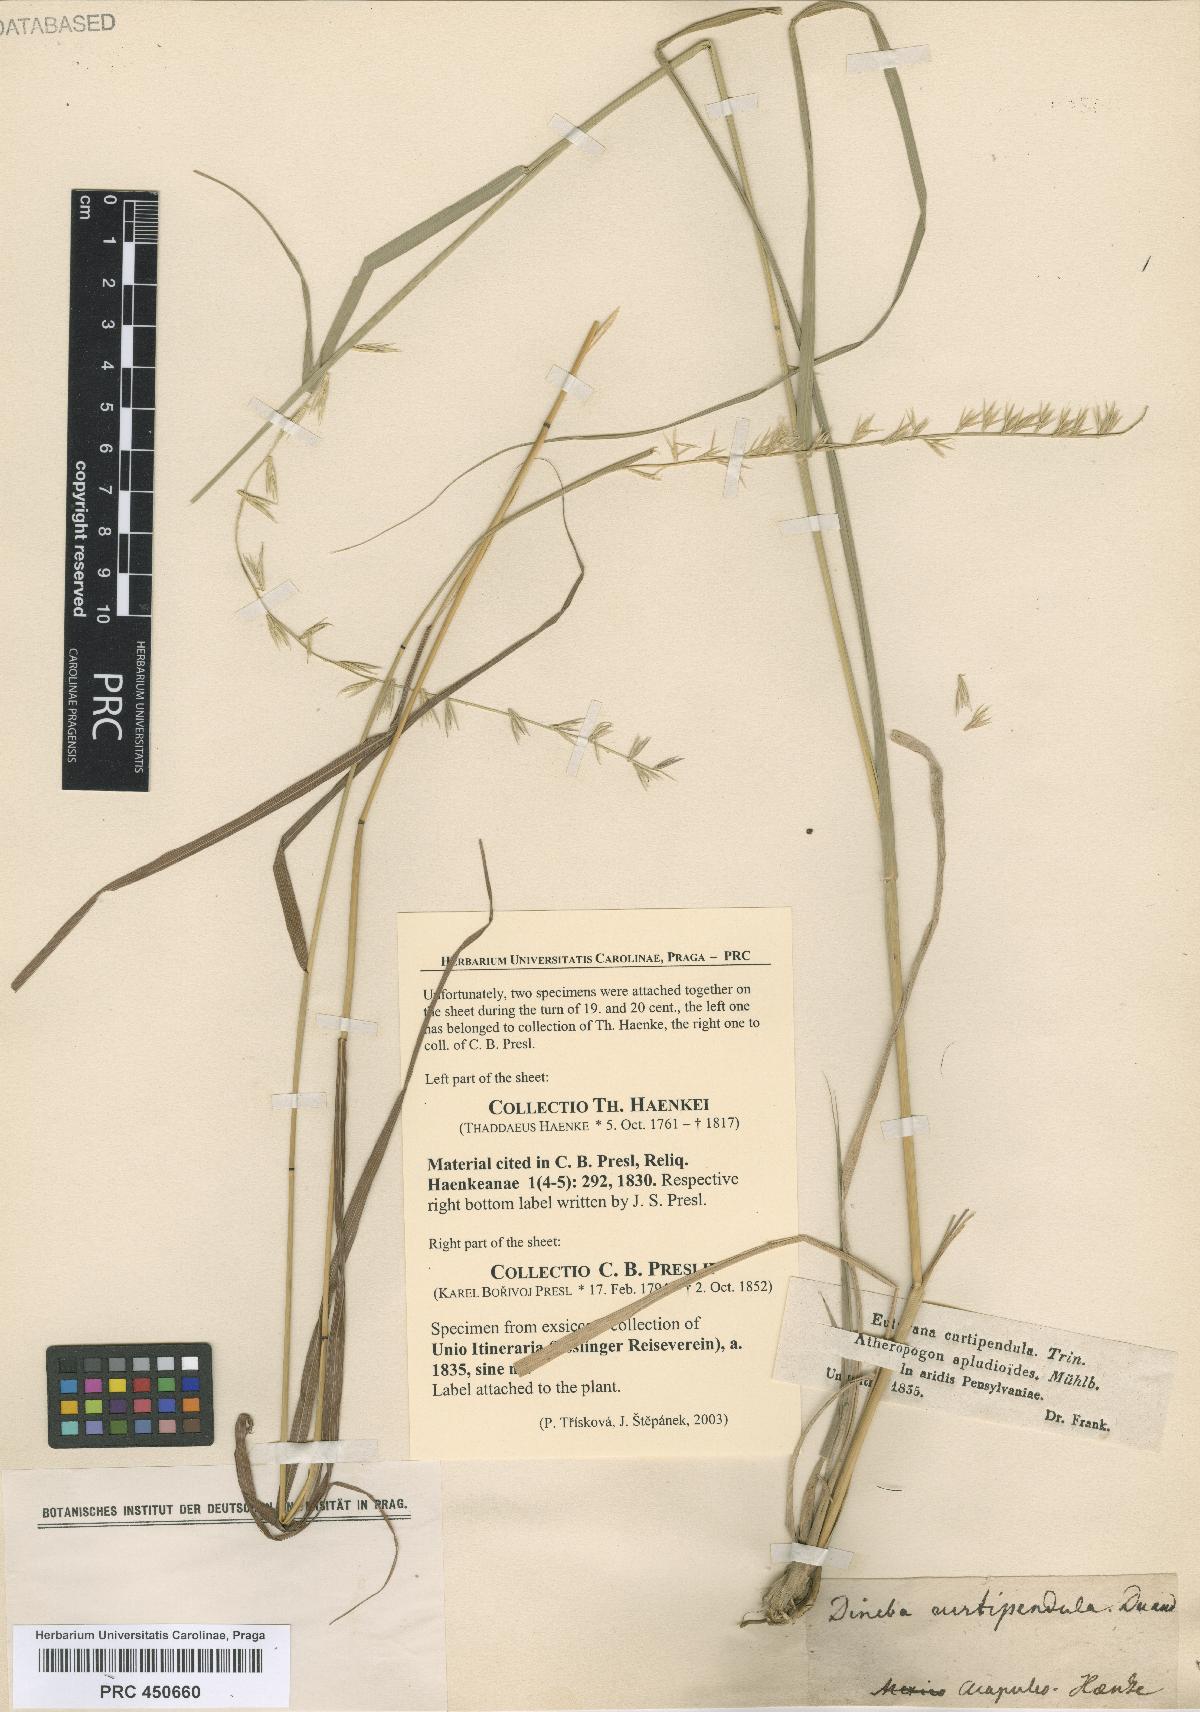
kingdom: Plantae
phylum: Tracheophyta
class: Liliopsida
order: Poales
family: Poaceae
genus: Dineba
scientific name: Dineba
